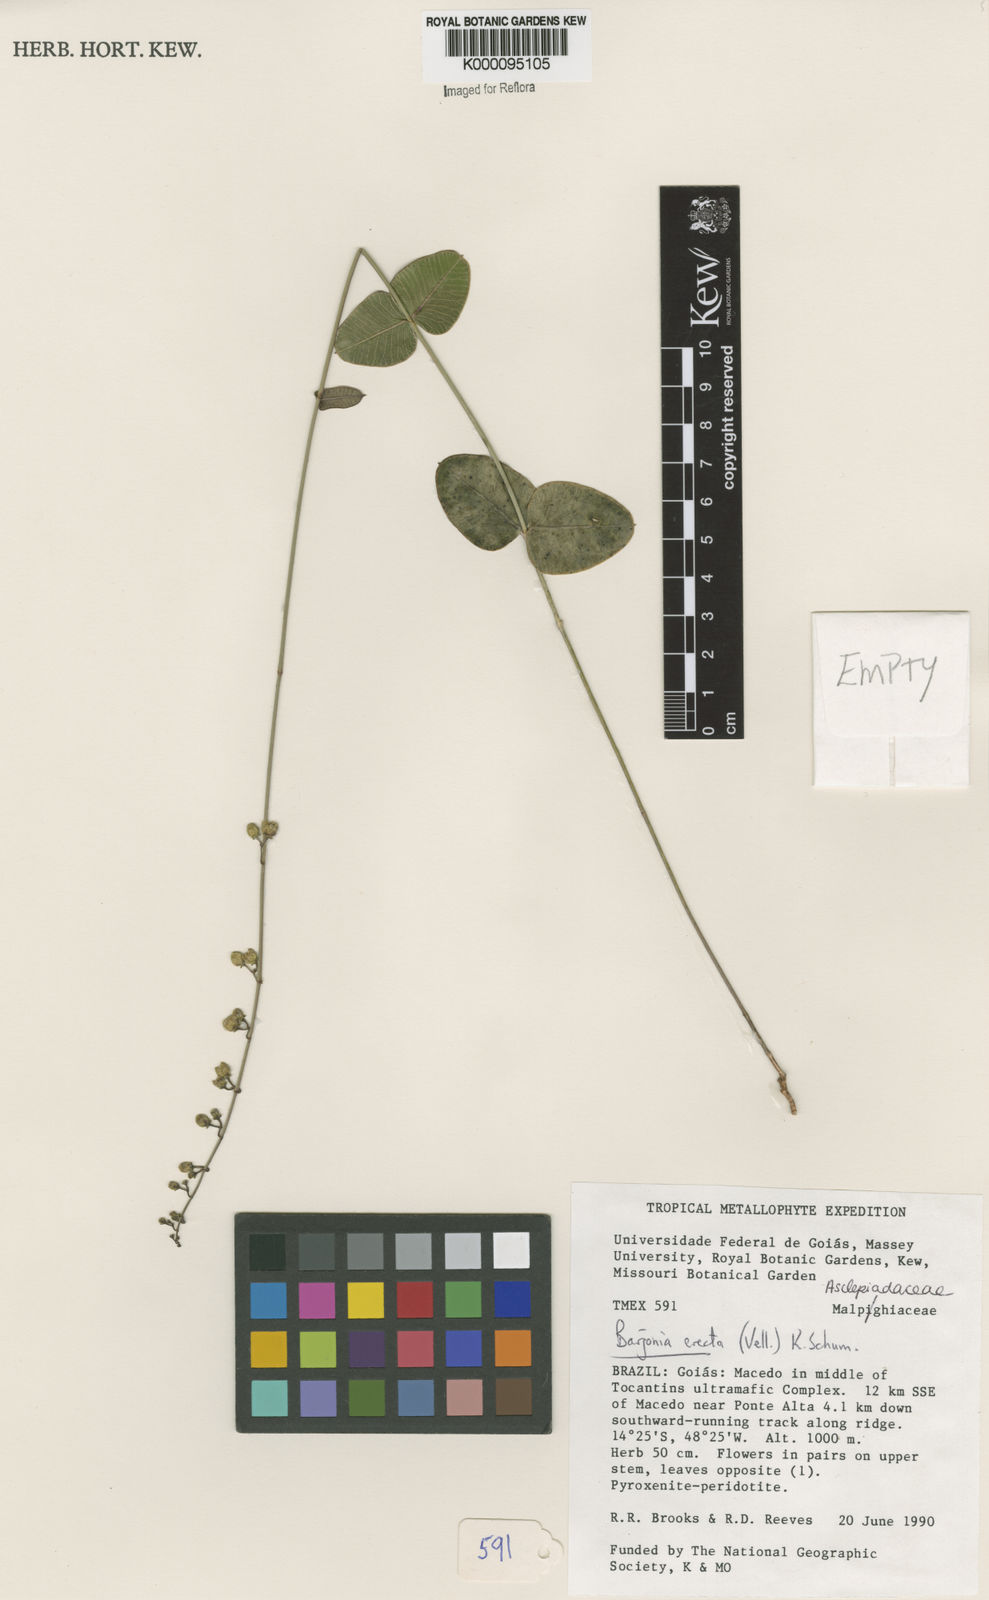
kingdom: Plantae
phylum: Tracheophyta
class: Magnoliopsida
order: Gentianales
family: Apocynaceae
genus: Barjonia
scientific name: Barjonia erecta
